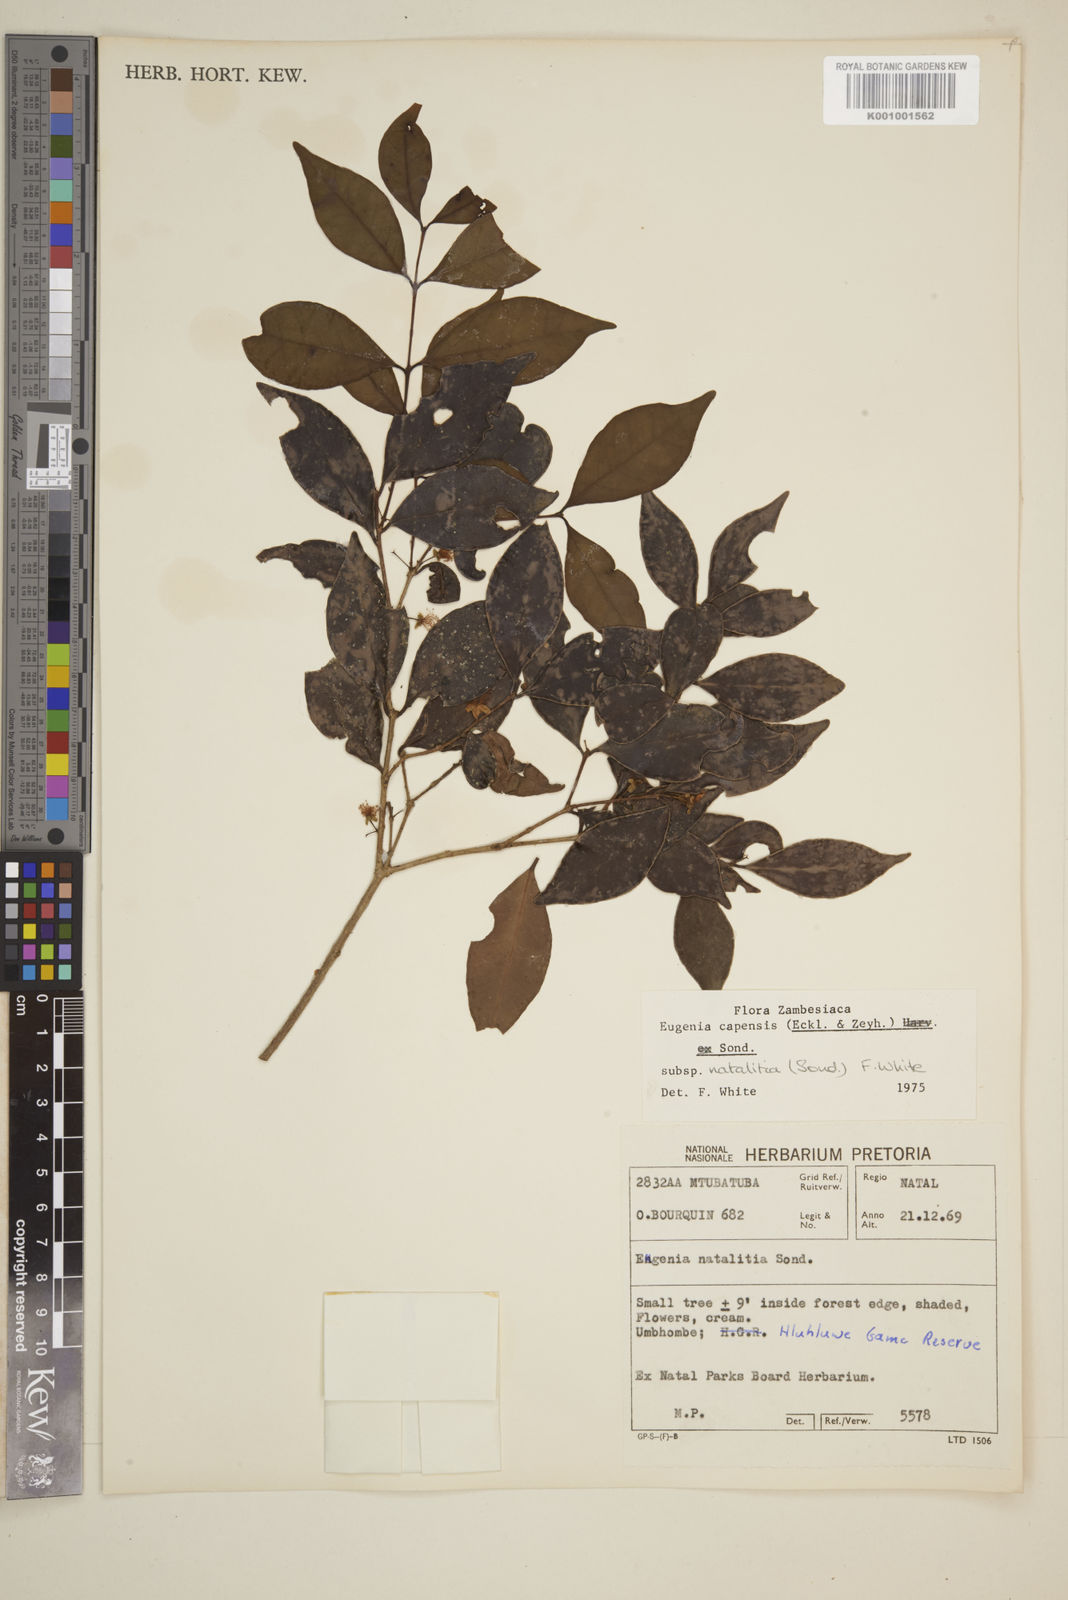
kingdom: Plantae
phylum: Tracheophyta
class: Magnoliopsida
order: Myrtales
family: Myrtaceae
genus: Eugenia
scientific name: Eugenia natalitia
